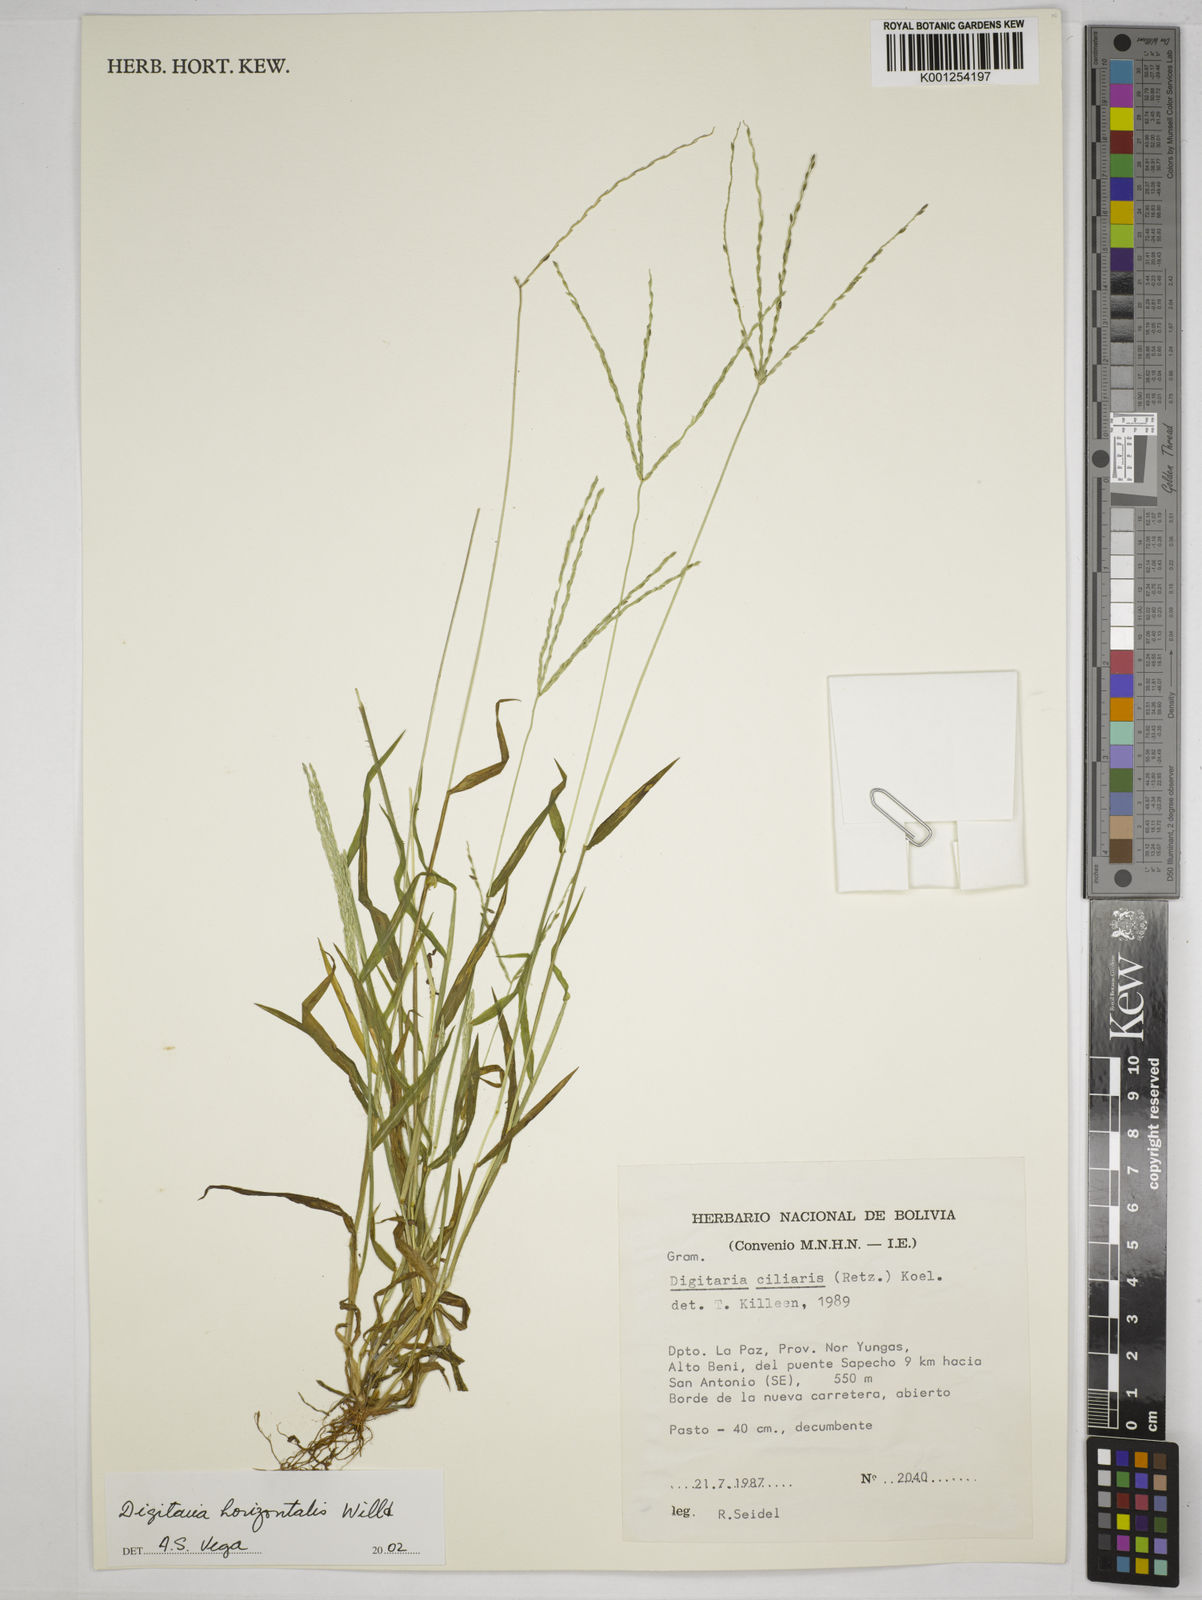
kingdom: Plantae
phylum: Tracheophyta
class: Liliopsida
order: Poales
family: Poaceae
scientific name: Poaceae
